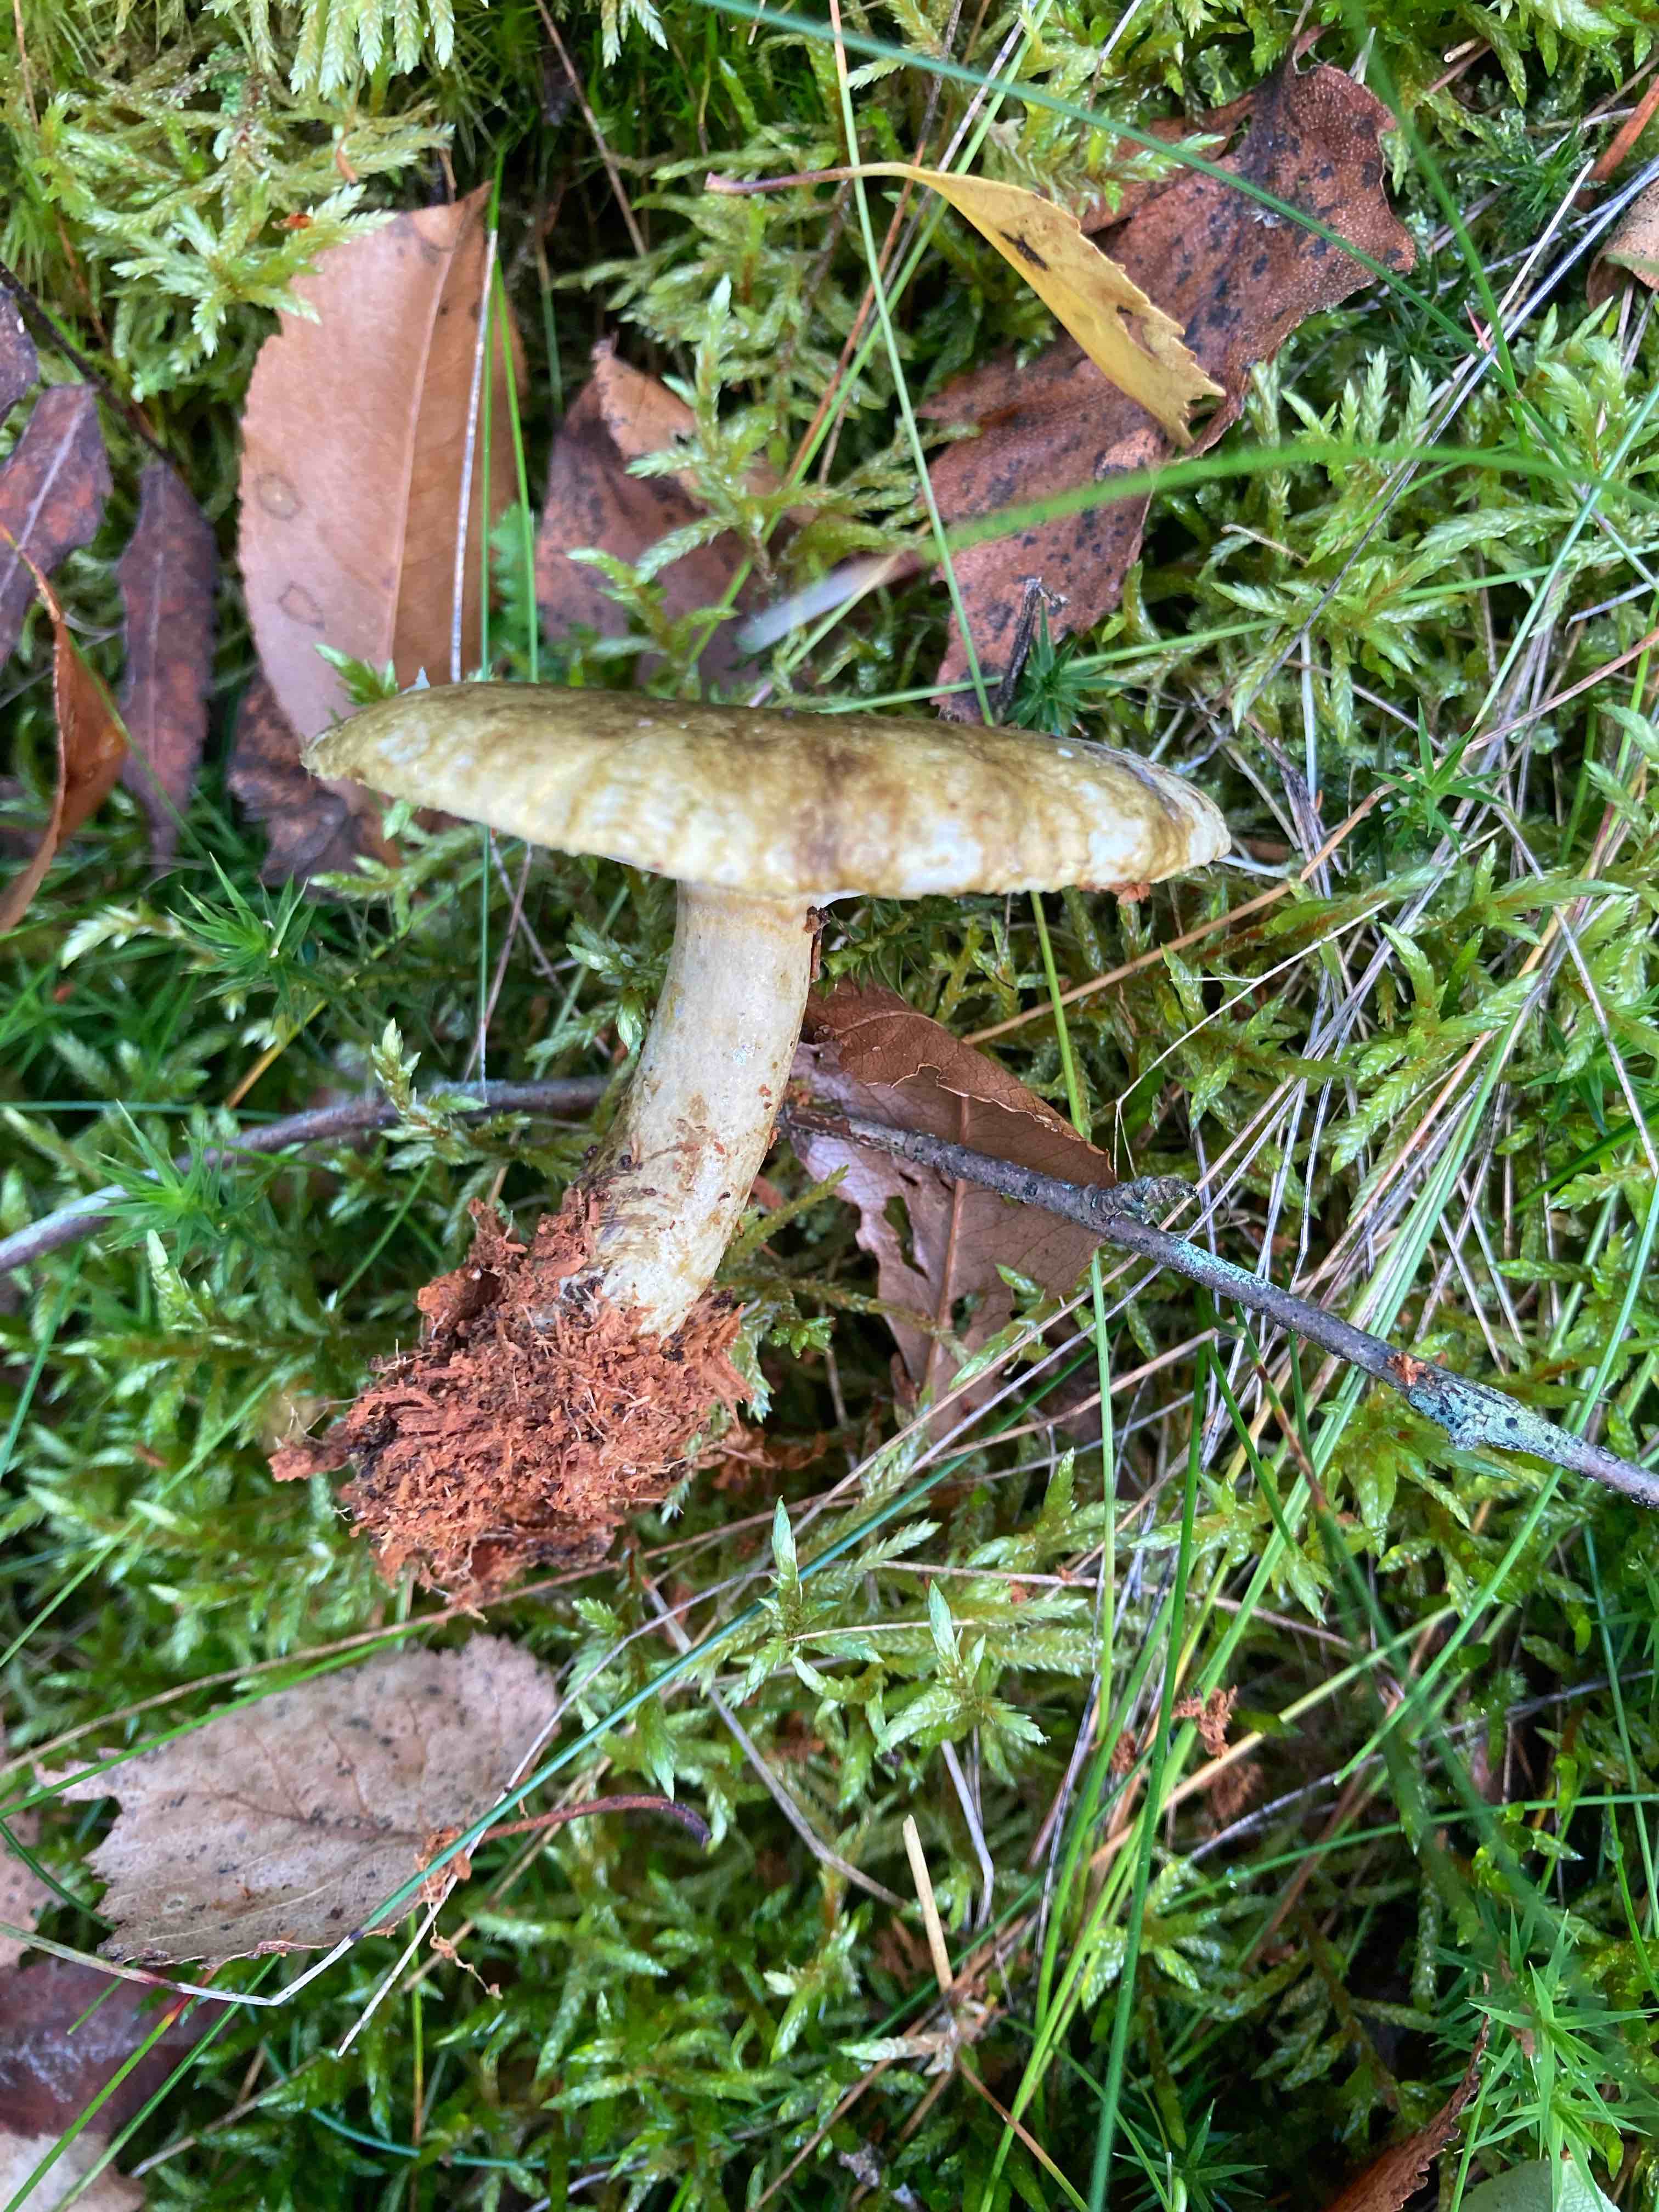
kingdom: Fungi
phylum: Basidiomycota
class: Agaricomycetes
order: Russulales
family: Russulaceae
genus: Lactarius
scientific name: Lactarius necator
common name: manddraber-mælkehat
